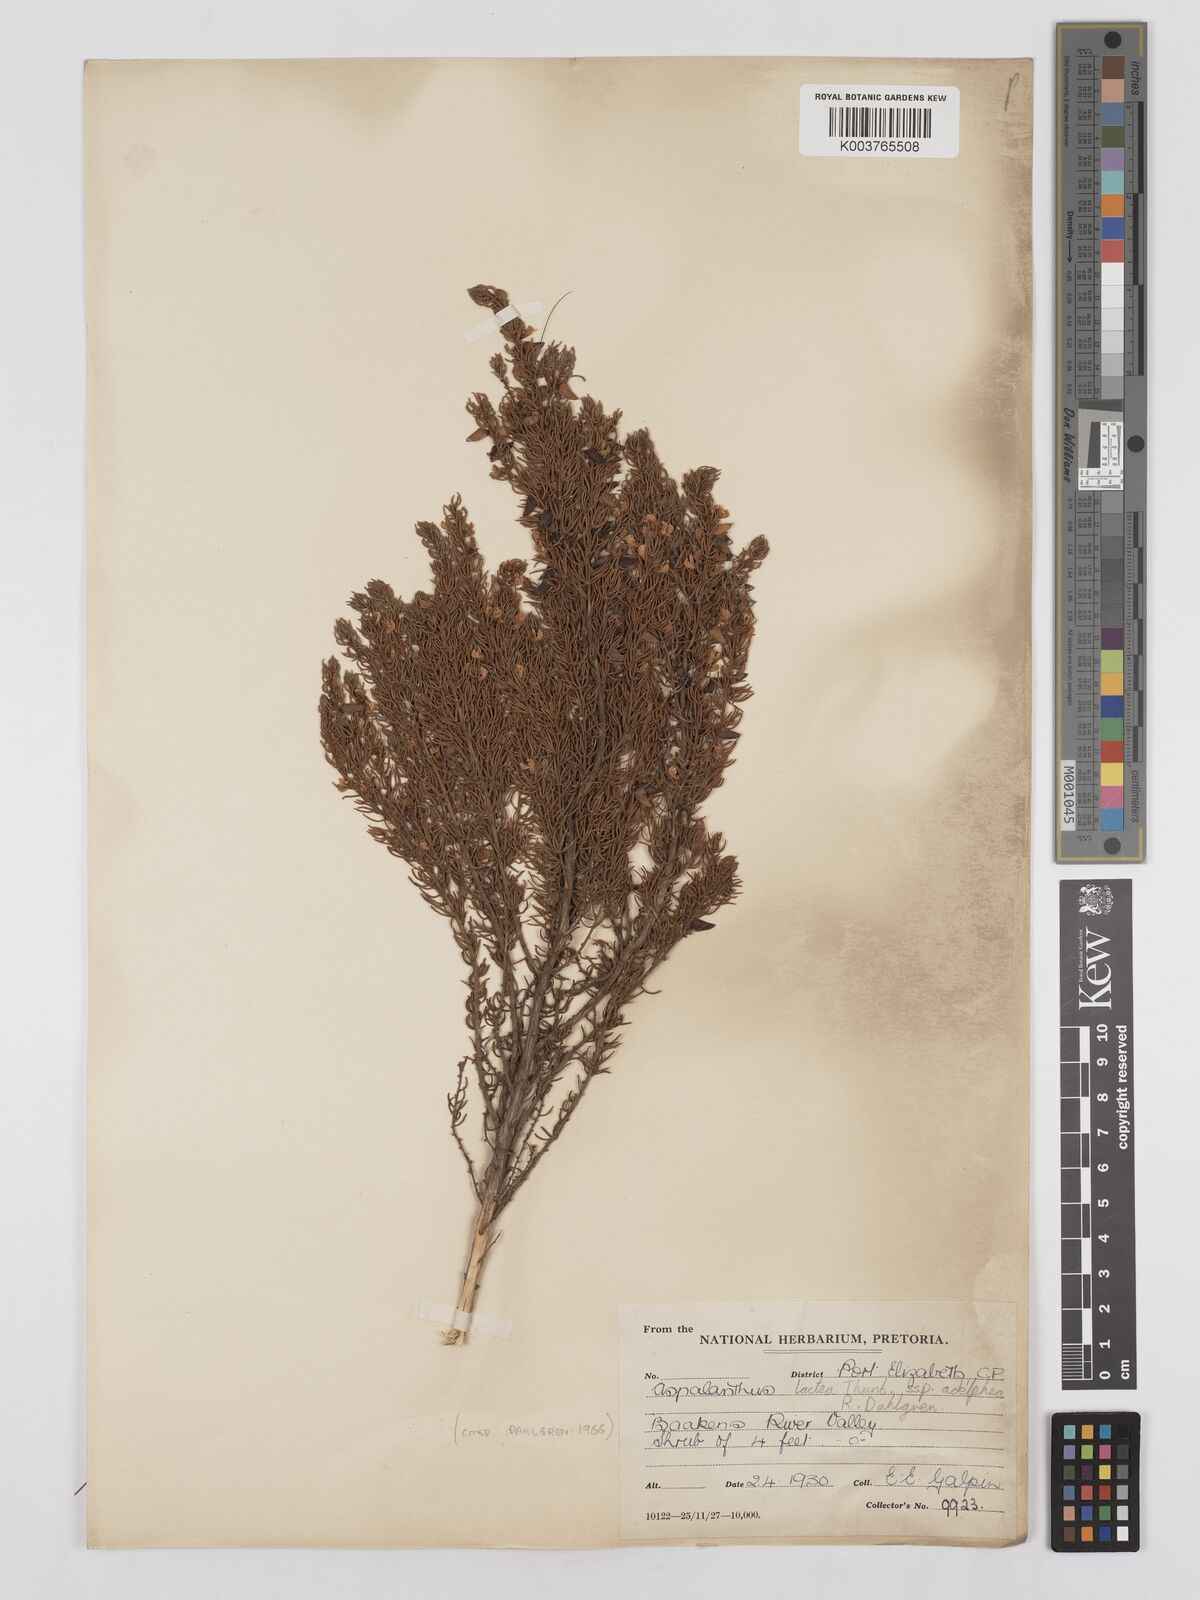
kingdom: Plantae
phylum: Tracheophyta
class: Magnoliopsida
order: Fabales
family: Fabaceae
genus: Aspalathus
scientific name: Aspalathus lactea
